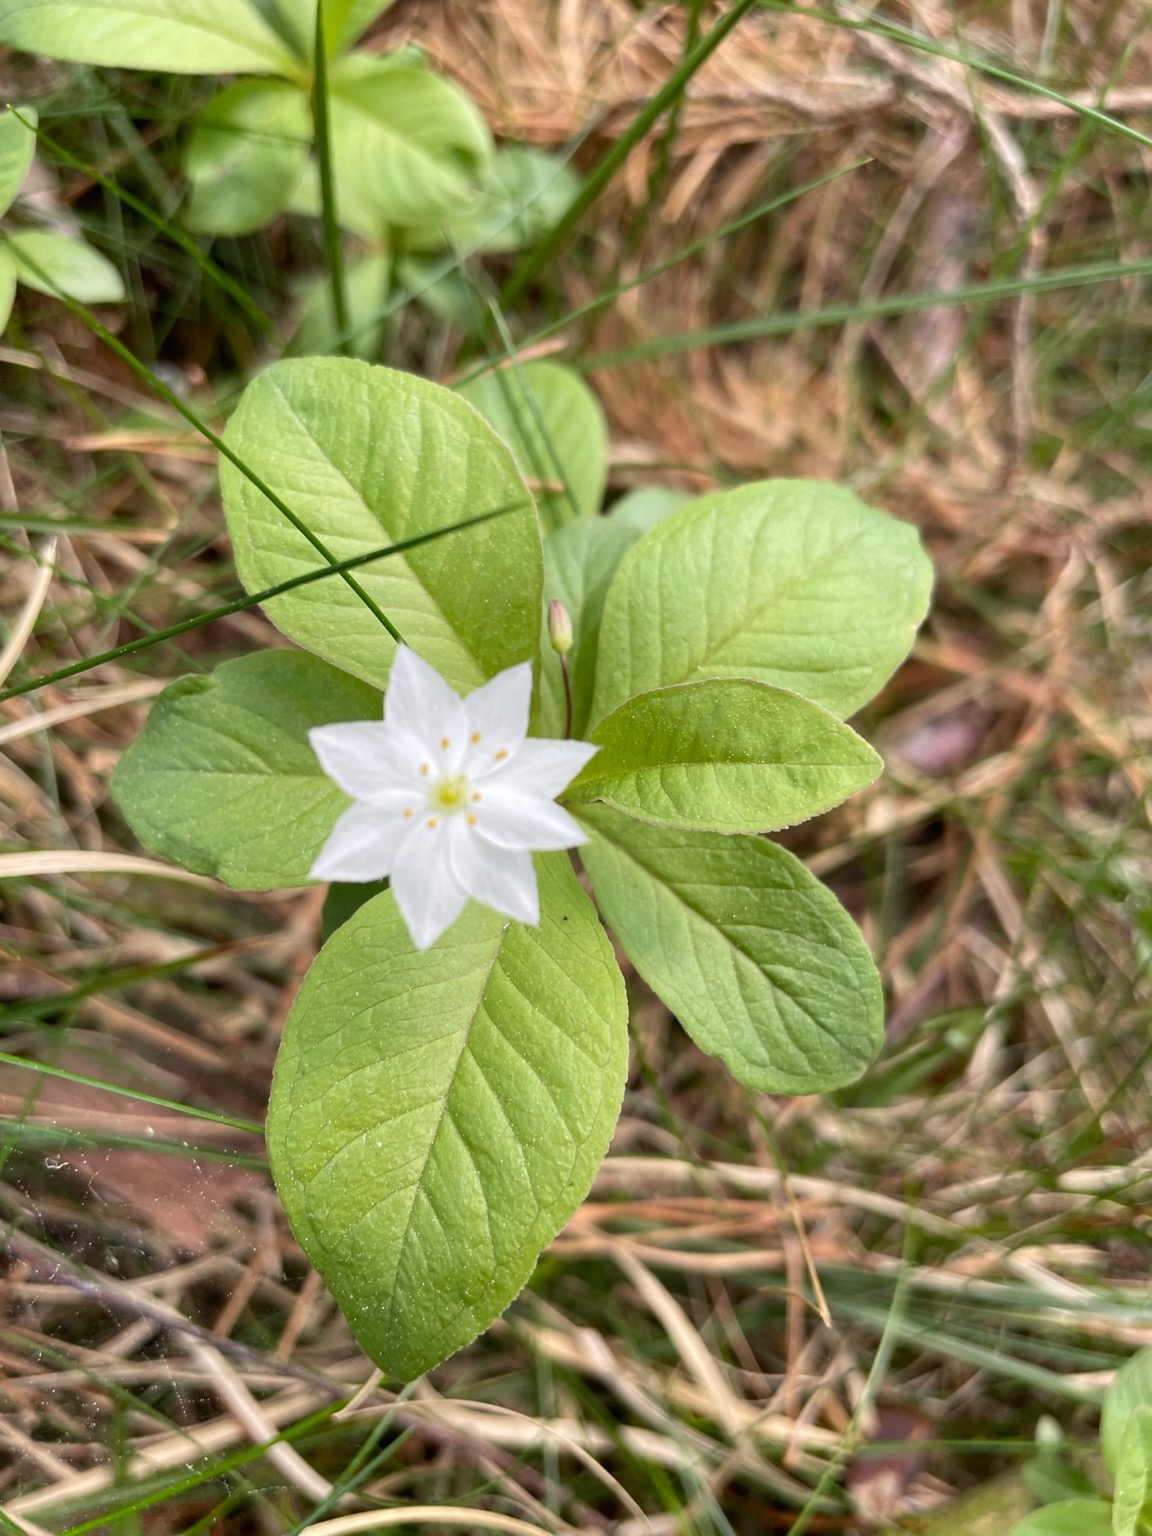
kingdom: Plantae
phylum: Tracheophyta
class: Magnoliopsida
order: Ericales
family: Primulaceae
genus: Lysimachia
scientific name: Lysimachia europaea
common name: Skovstjerne
